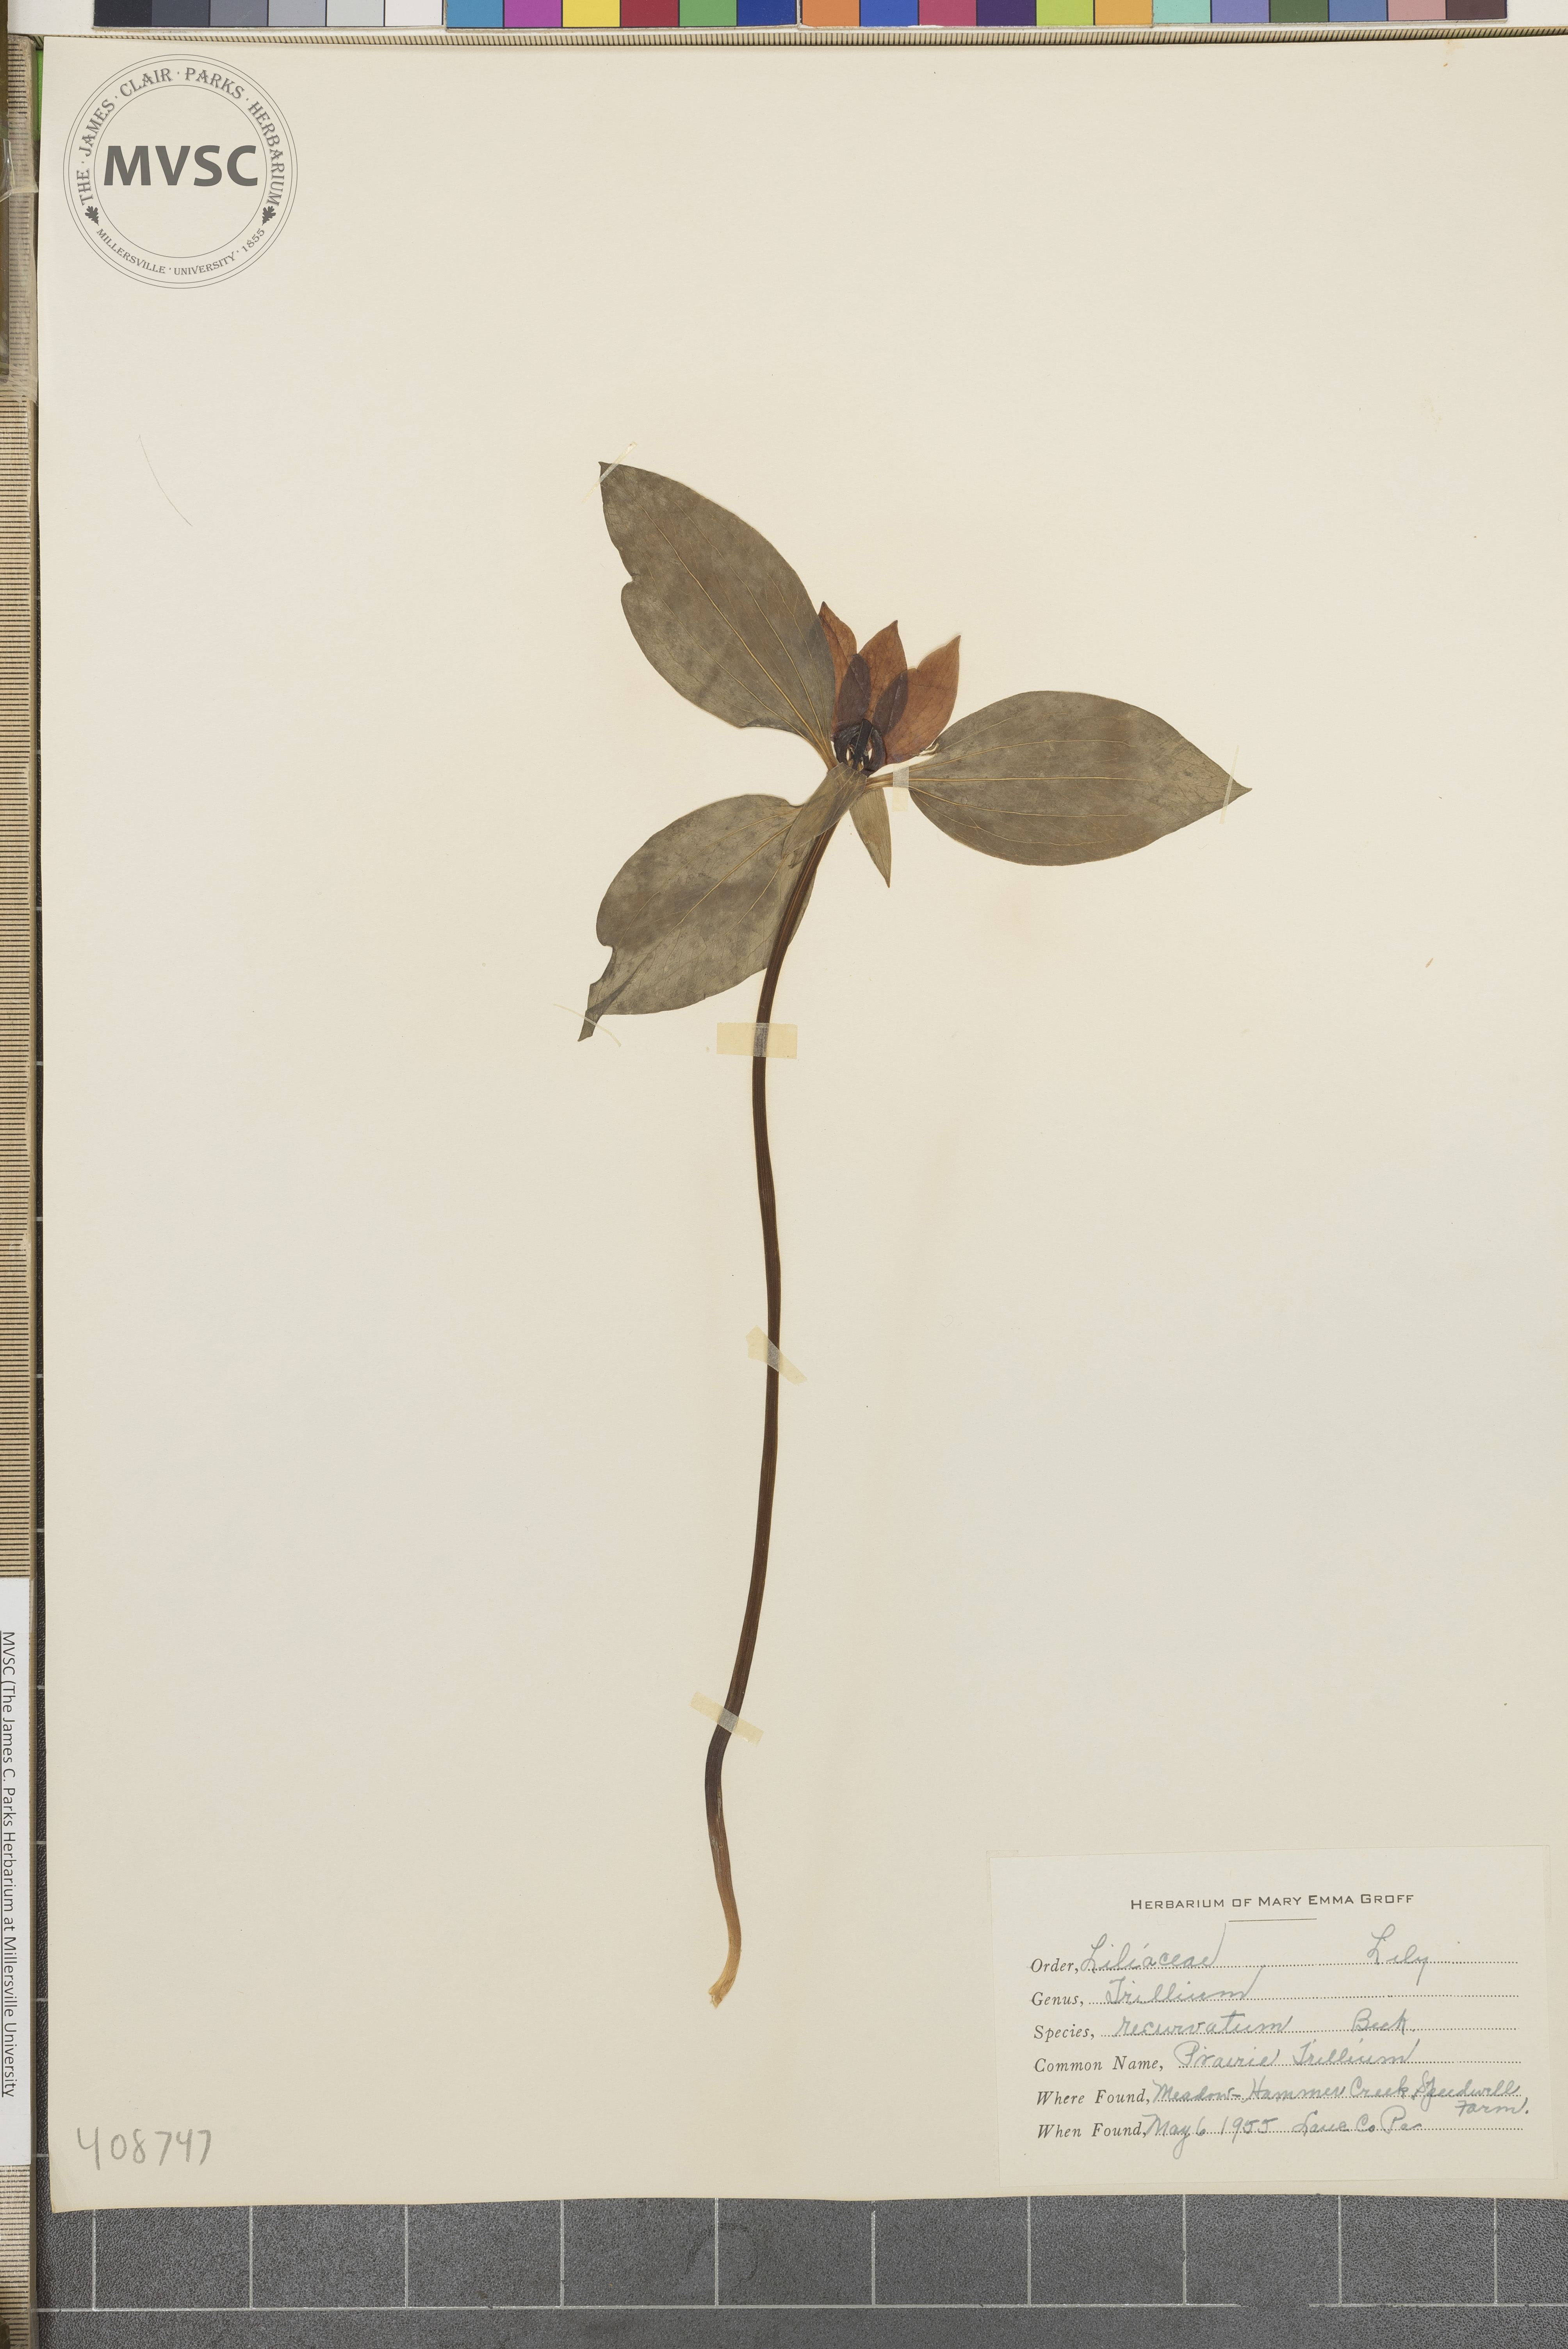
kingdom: Plantae
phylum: Tracheophyta
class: Liliopsida
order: Liliales
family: Melanthiaceae
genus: Trillium
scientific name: Trillium recurvatum
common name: Prairie Trillium
